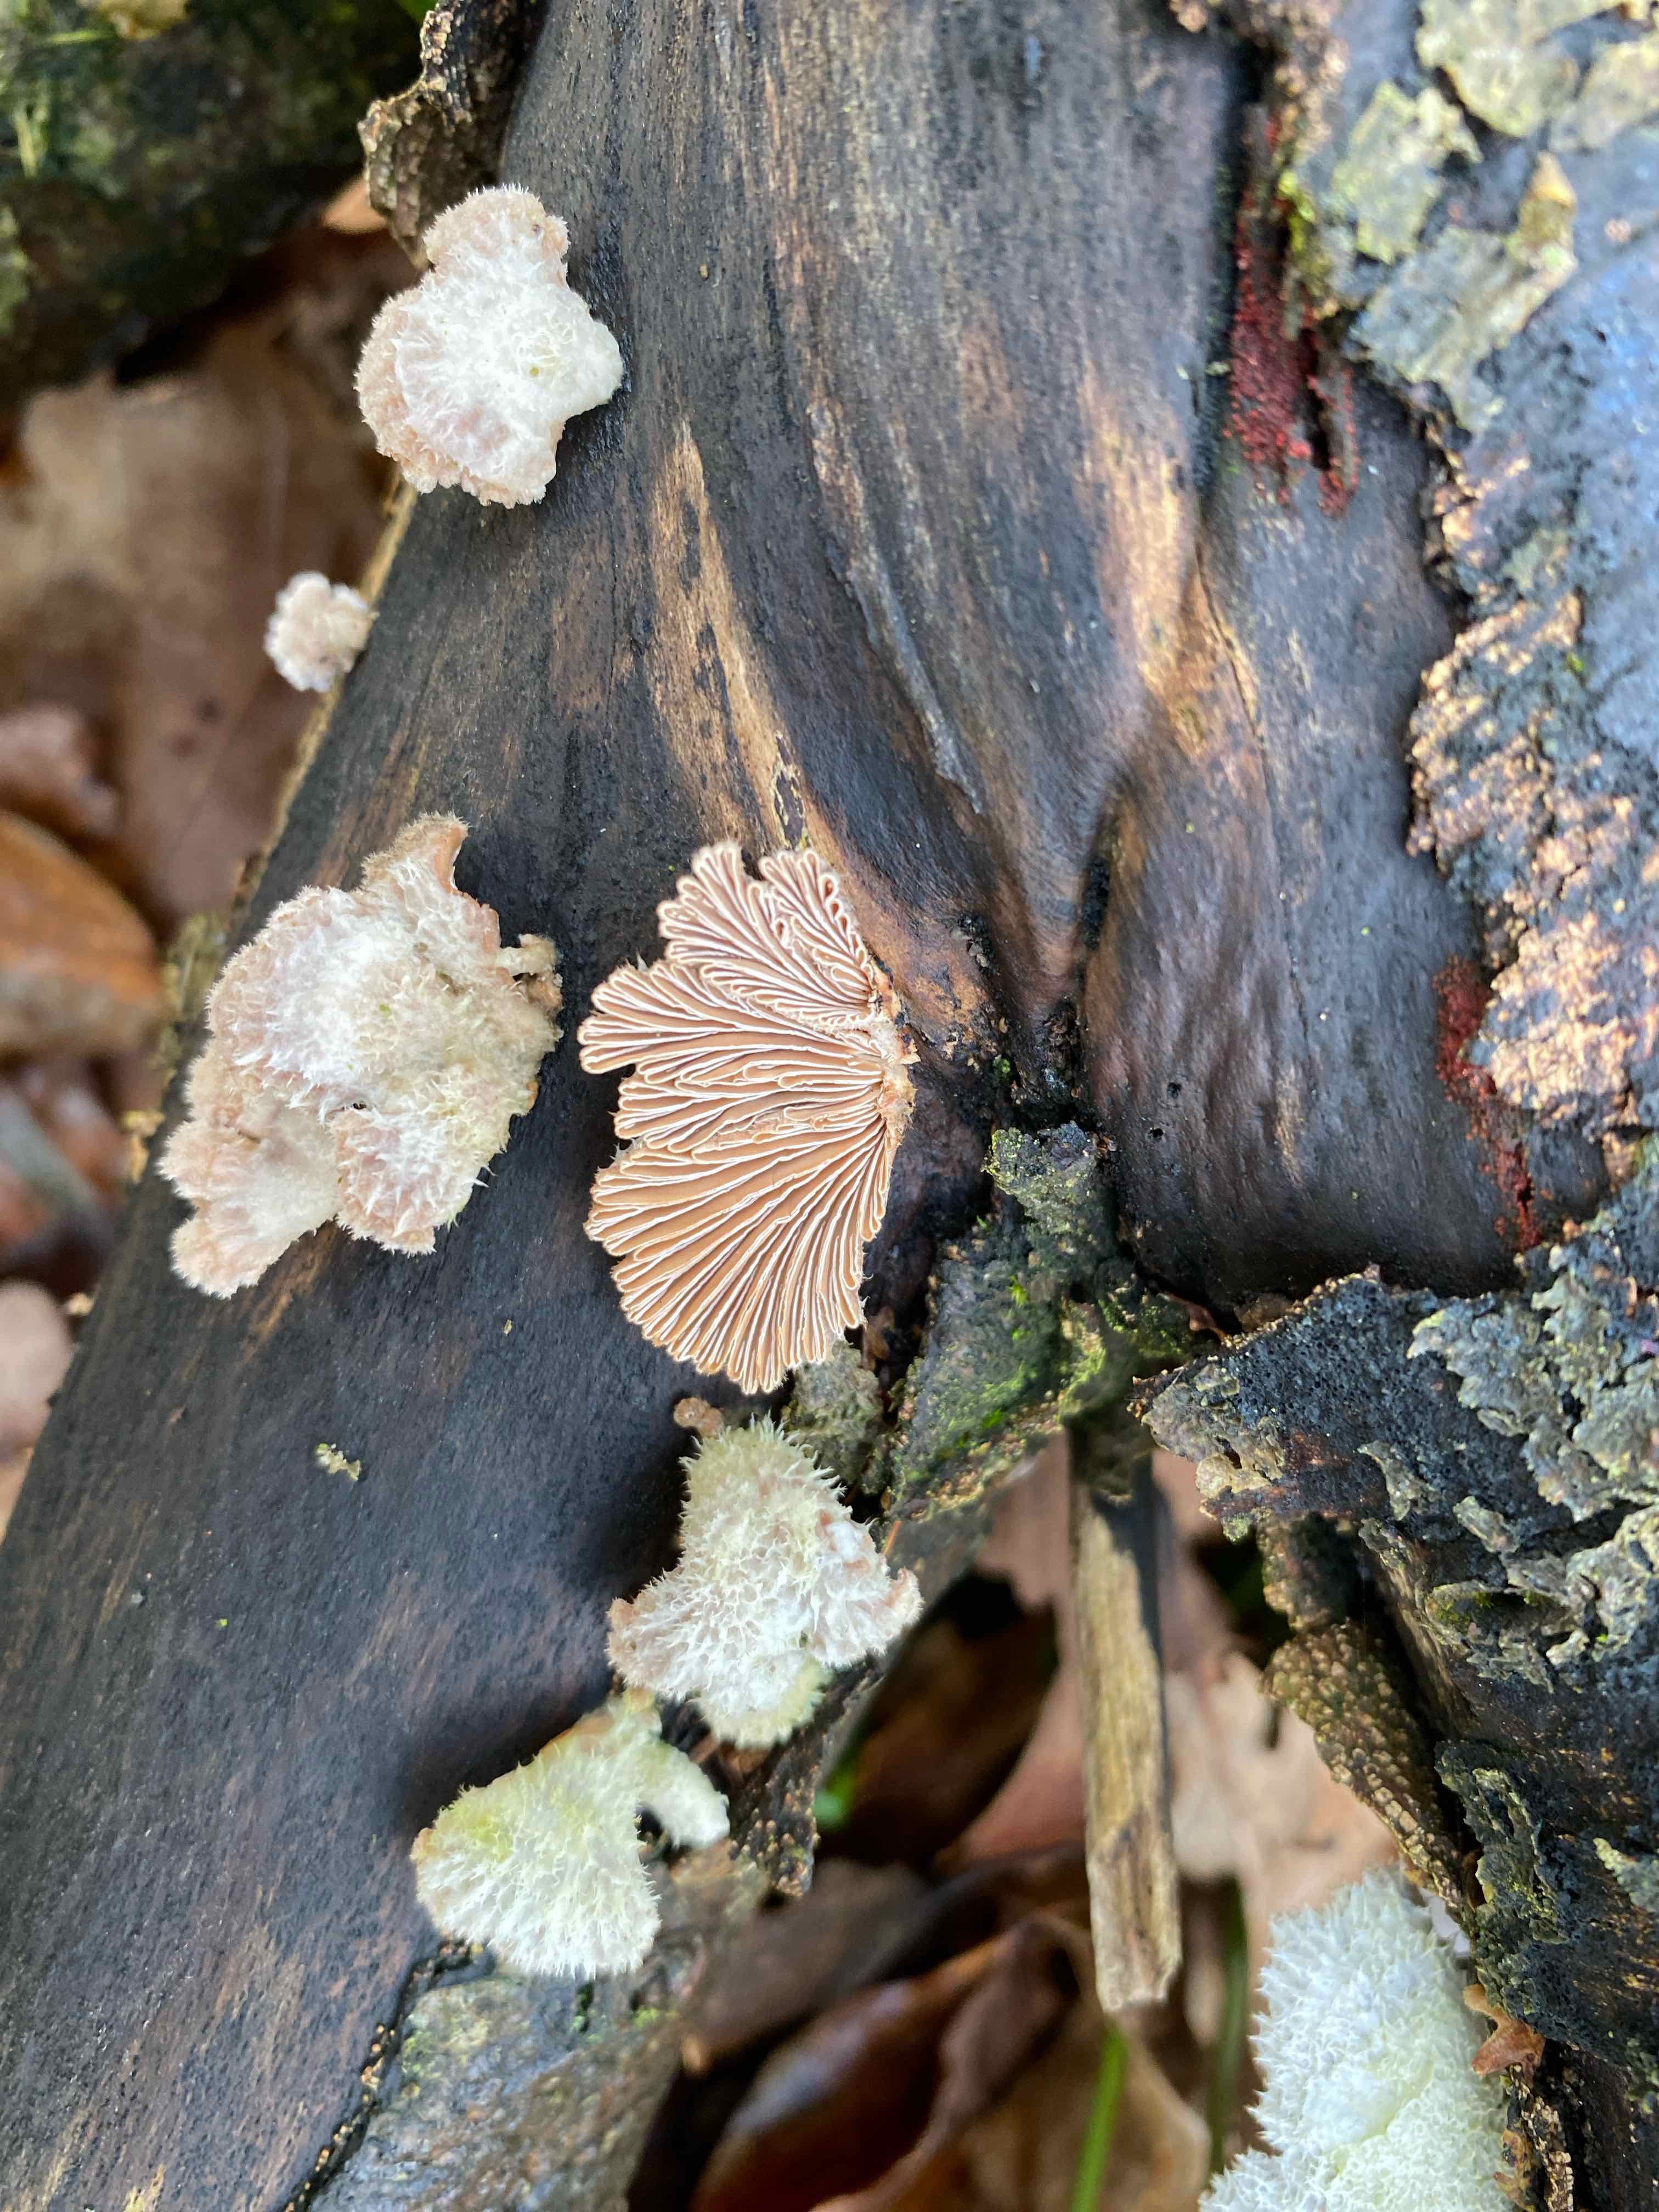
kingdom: Fungi
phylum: Basidiomycota
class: Agaricomycetes
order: Agaricales
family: Schizophyllaceae
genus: Schizophyllum
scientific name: Schizophyllum commune
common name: kløvblad
